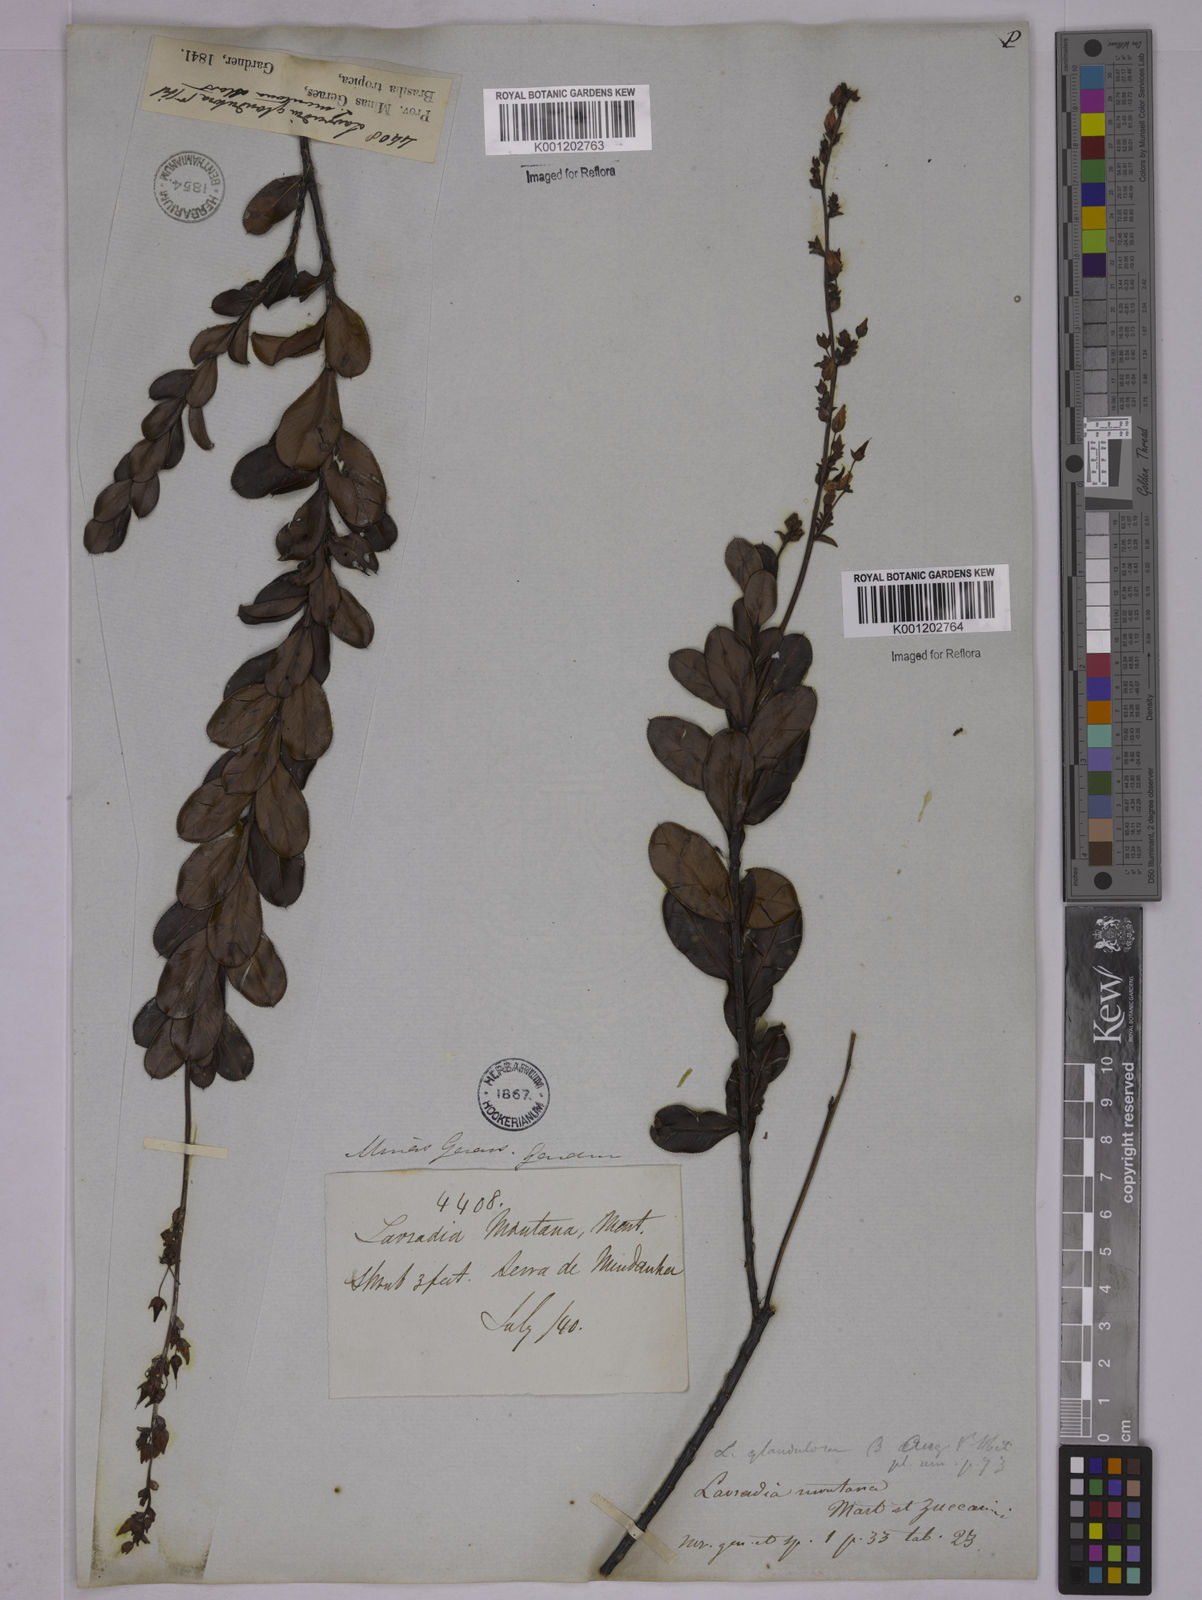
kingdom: Plantae
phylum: Tracheophyta
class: Magnoliopsida
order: Malpighiales
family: Ochnaceae
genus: Sauvagesia
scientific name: Sauvagesia elegantissima
